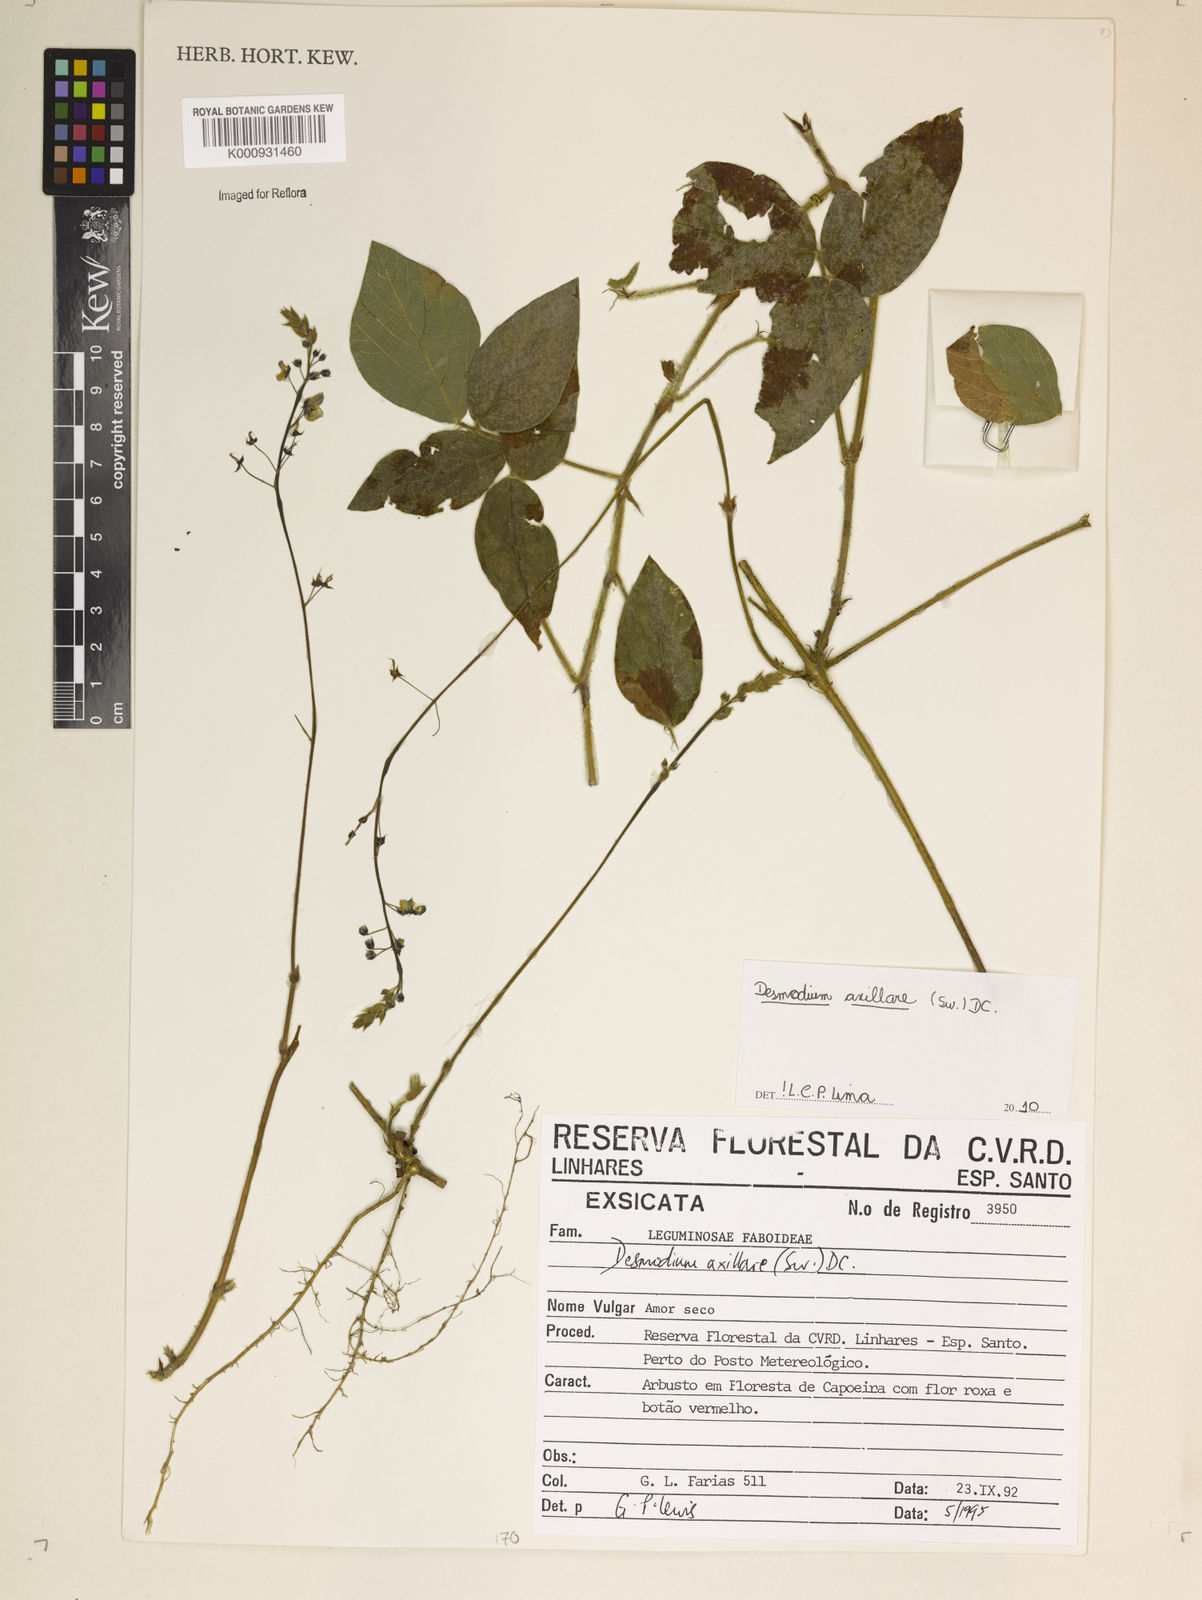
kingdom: Plantae
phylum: Tracheophyta
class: Magnoliopsida
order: Fabales
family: Fabaceae
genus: Desmodium
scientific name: Desmodium axillare
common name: Wire with
